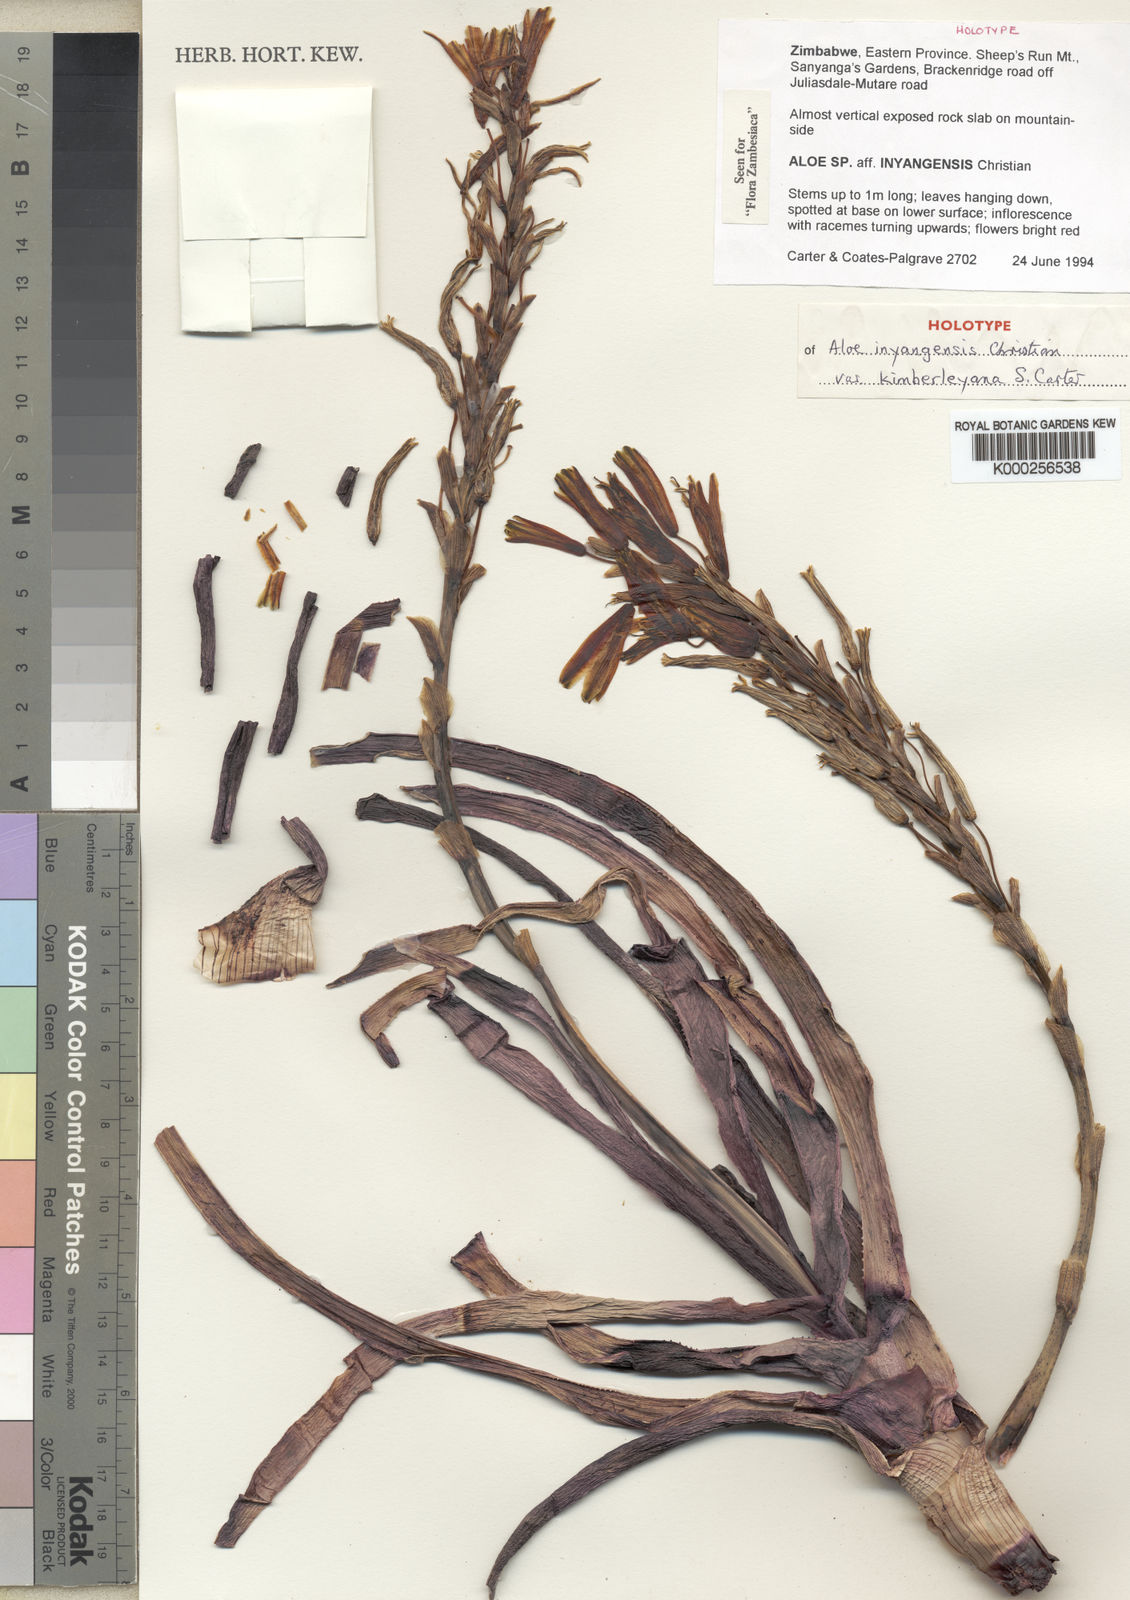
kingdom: Plantae
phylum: Tracheophyta
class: Liliopsida
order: Asparagales
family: Asphodelaceae
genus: Aloe
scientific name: Aloe inyangensis
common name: Inyanga aloe
